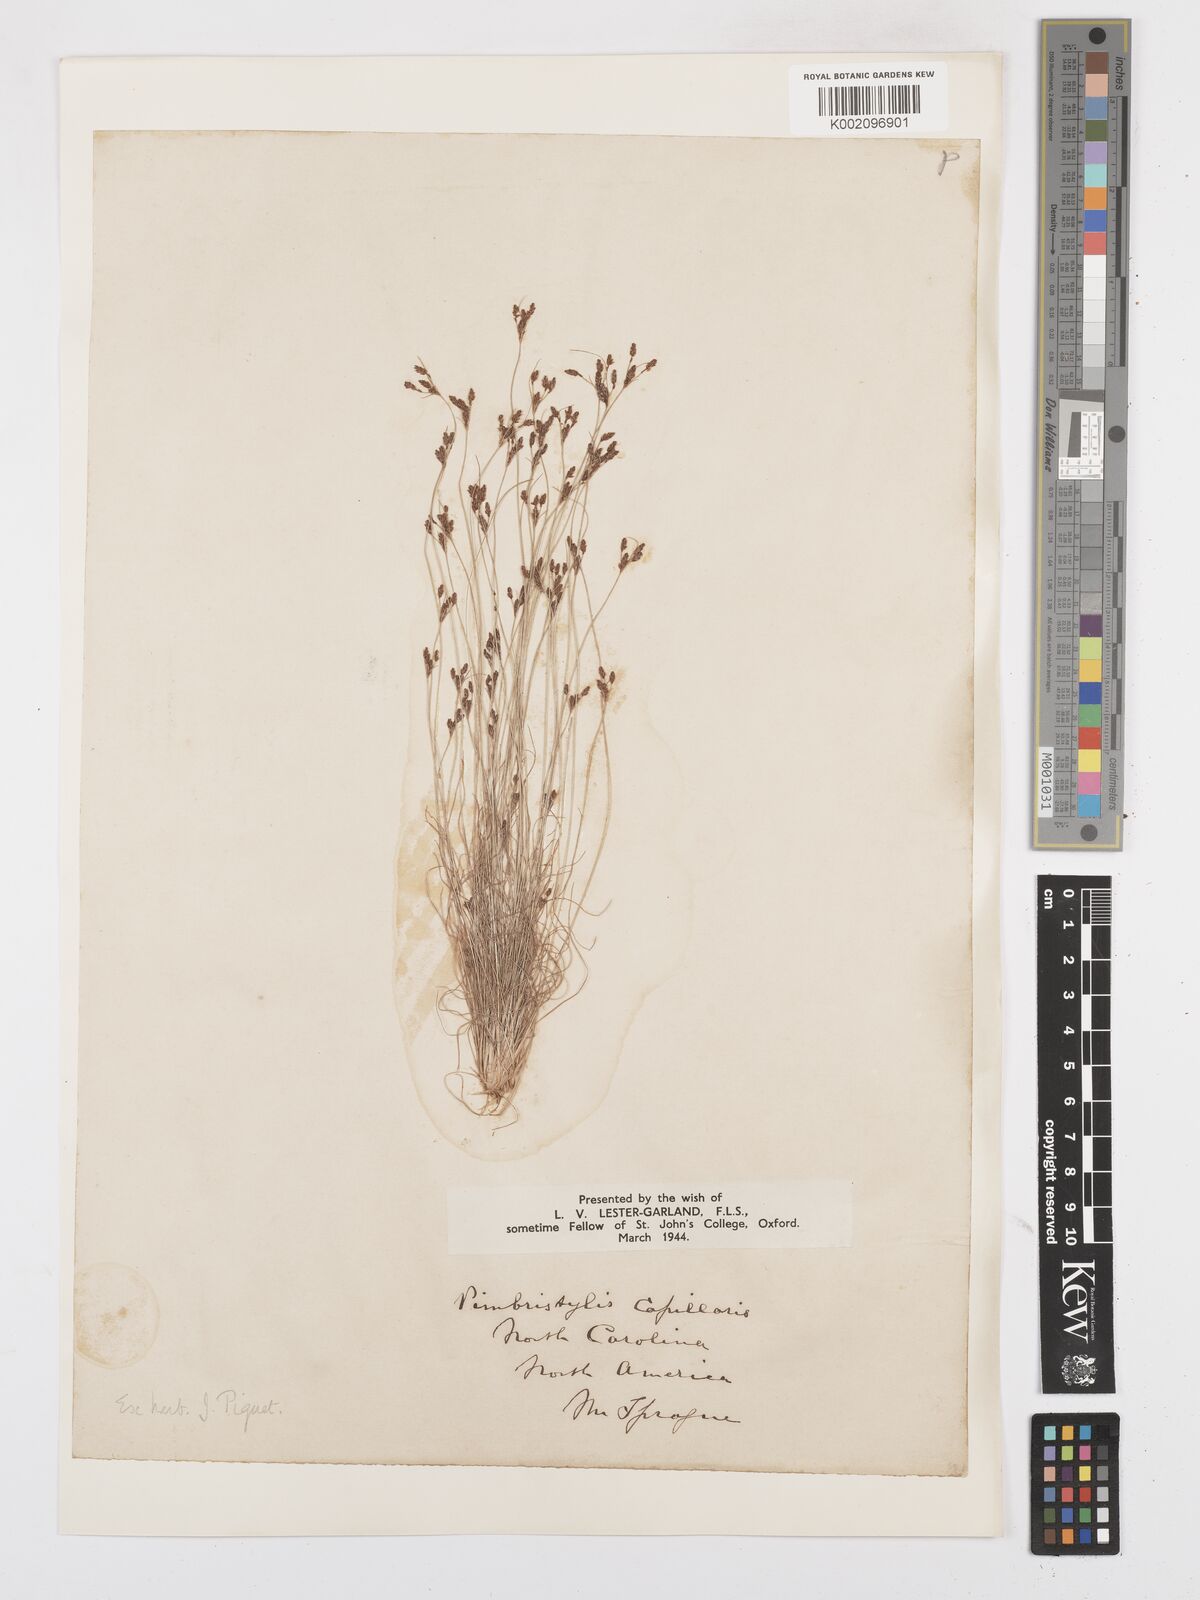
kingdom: Plantae
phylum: Tracheophyta
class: Liliopsida
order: Poales
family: Cyperaceae
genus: Bulbostylis
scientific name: Bulbostylis capillaris
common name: Densetuft hairsedge
